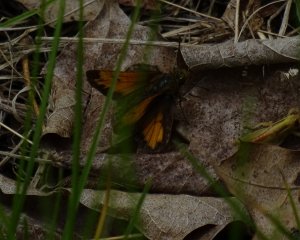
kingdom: Animalia
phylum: Arthropoda
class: Insecta
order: Lepidoptera
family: Hesperiidae
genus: Lon
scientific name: Lon hobomok
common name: Hobomok Skipper
